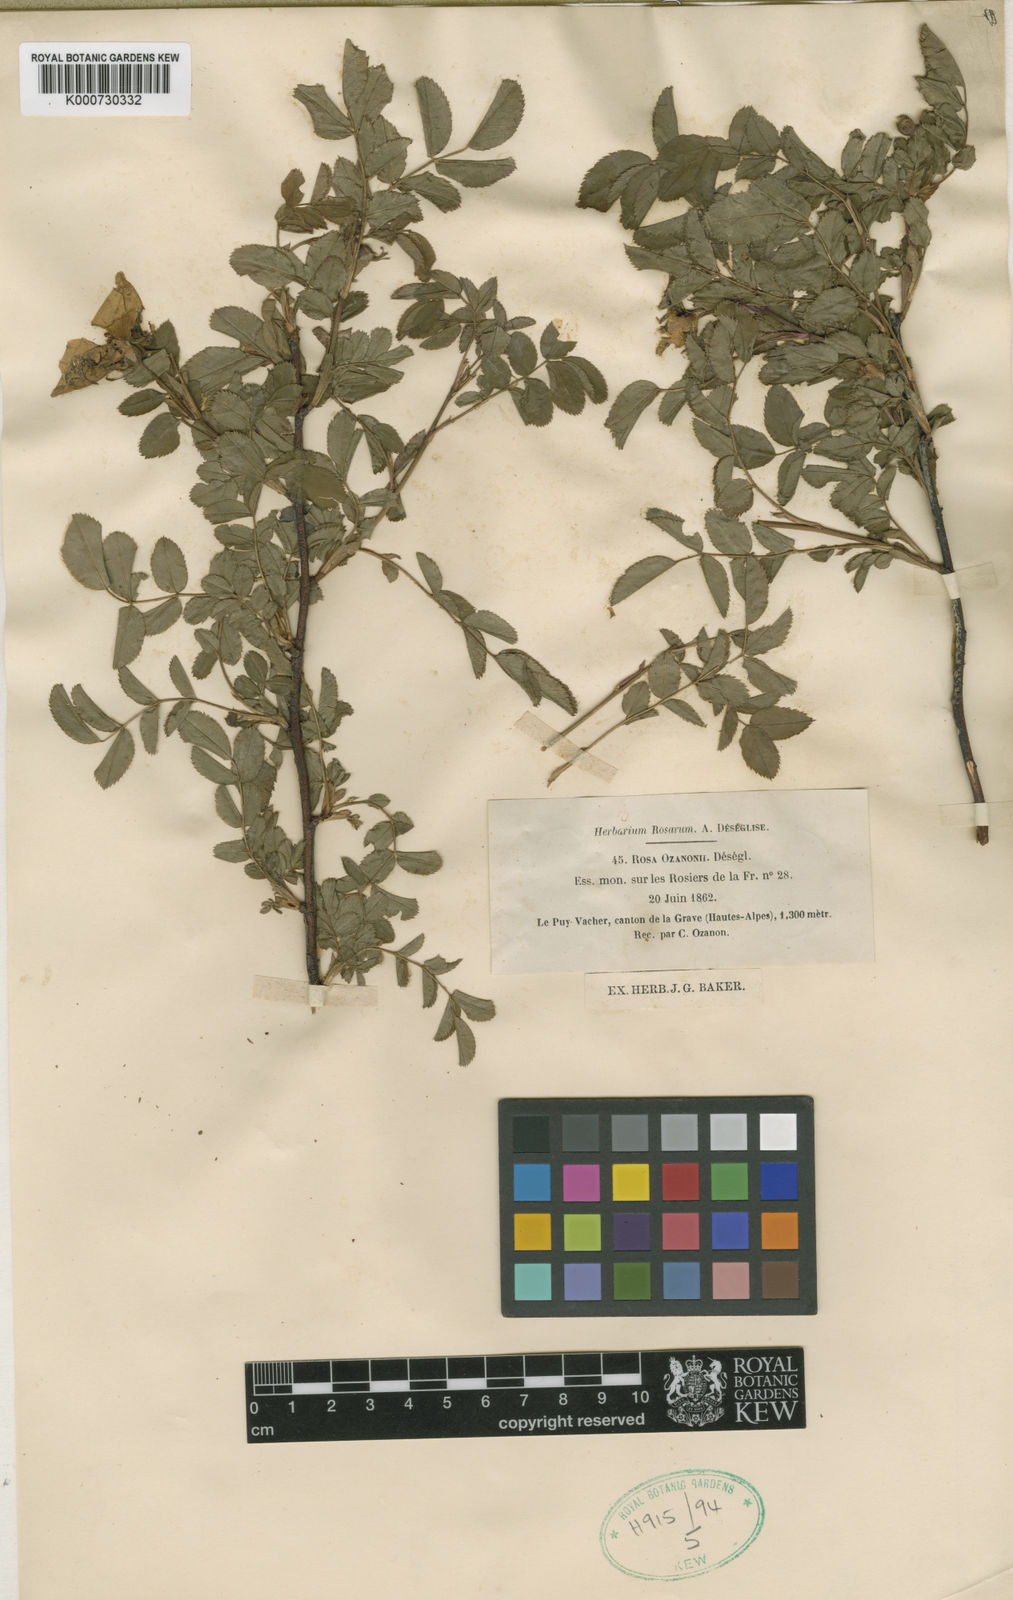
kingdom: Plantae
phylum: Tracheophyta
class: Magnoliopsida
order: Rosales
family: Rosaceae
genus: Rosa
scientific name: Rosa spinosissima
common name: Burnet rose
